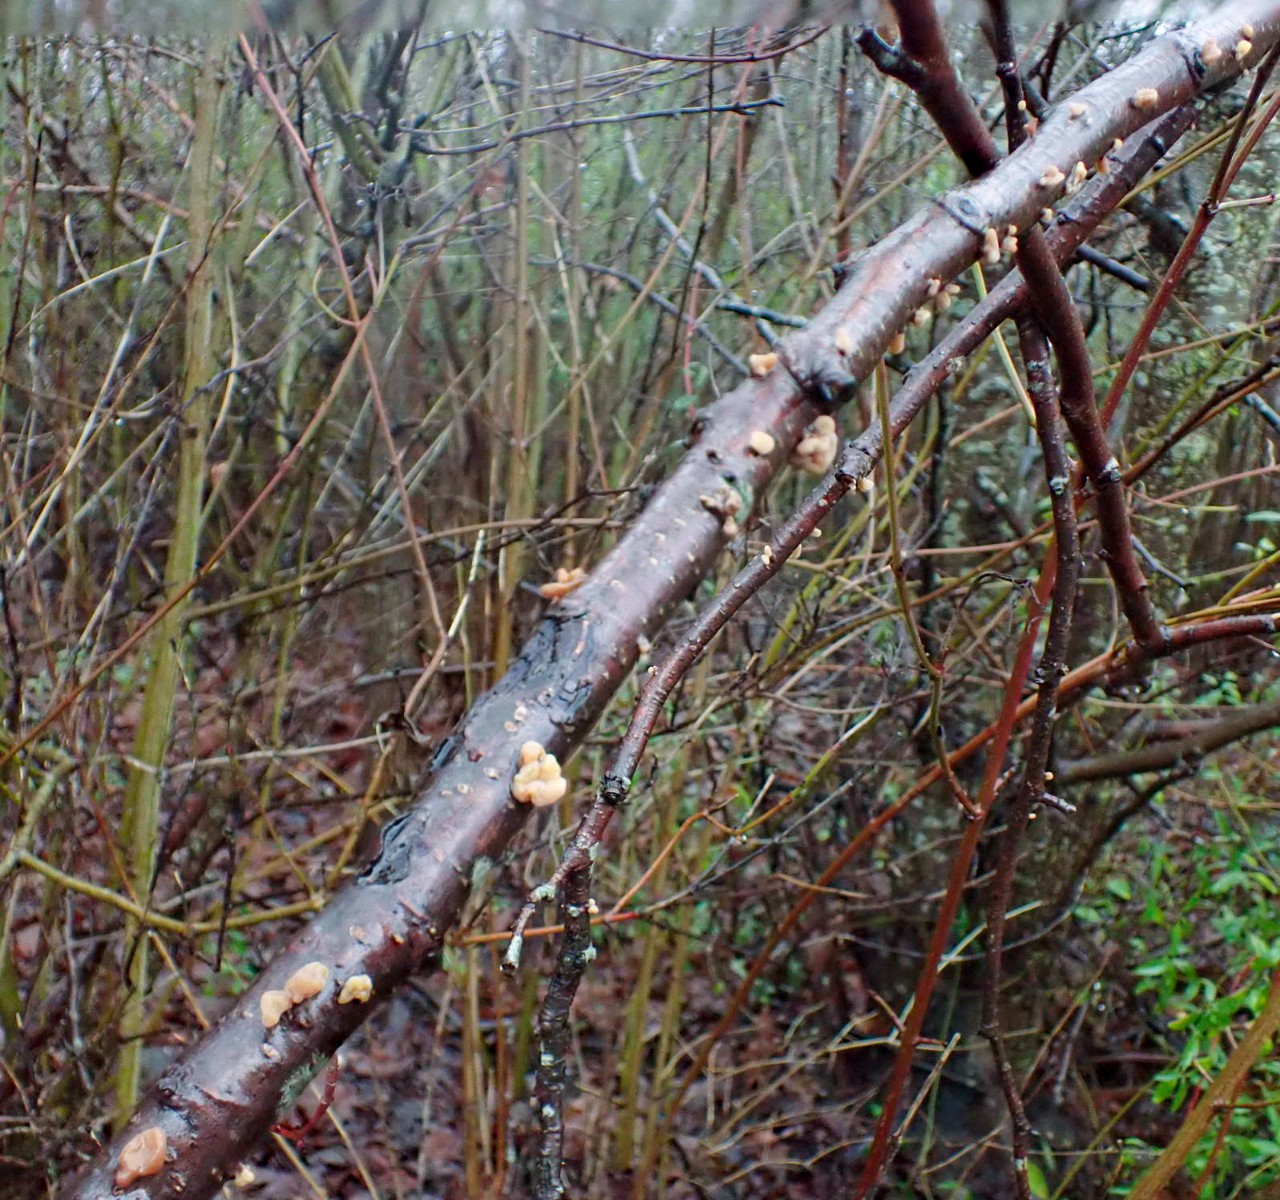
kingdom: Fungi
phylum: Basidiomycota
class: Agaricomycetes
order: Agaricales
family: Typhulaceae
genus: Typhula
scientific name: Typhula contorta
